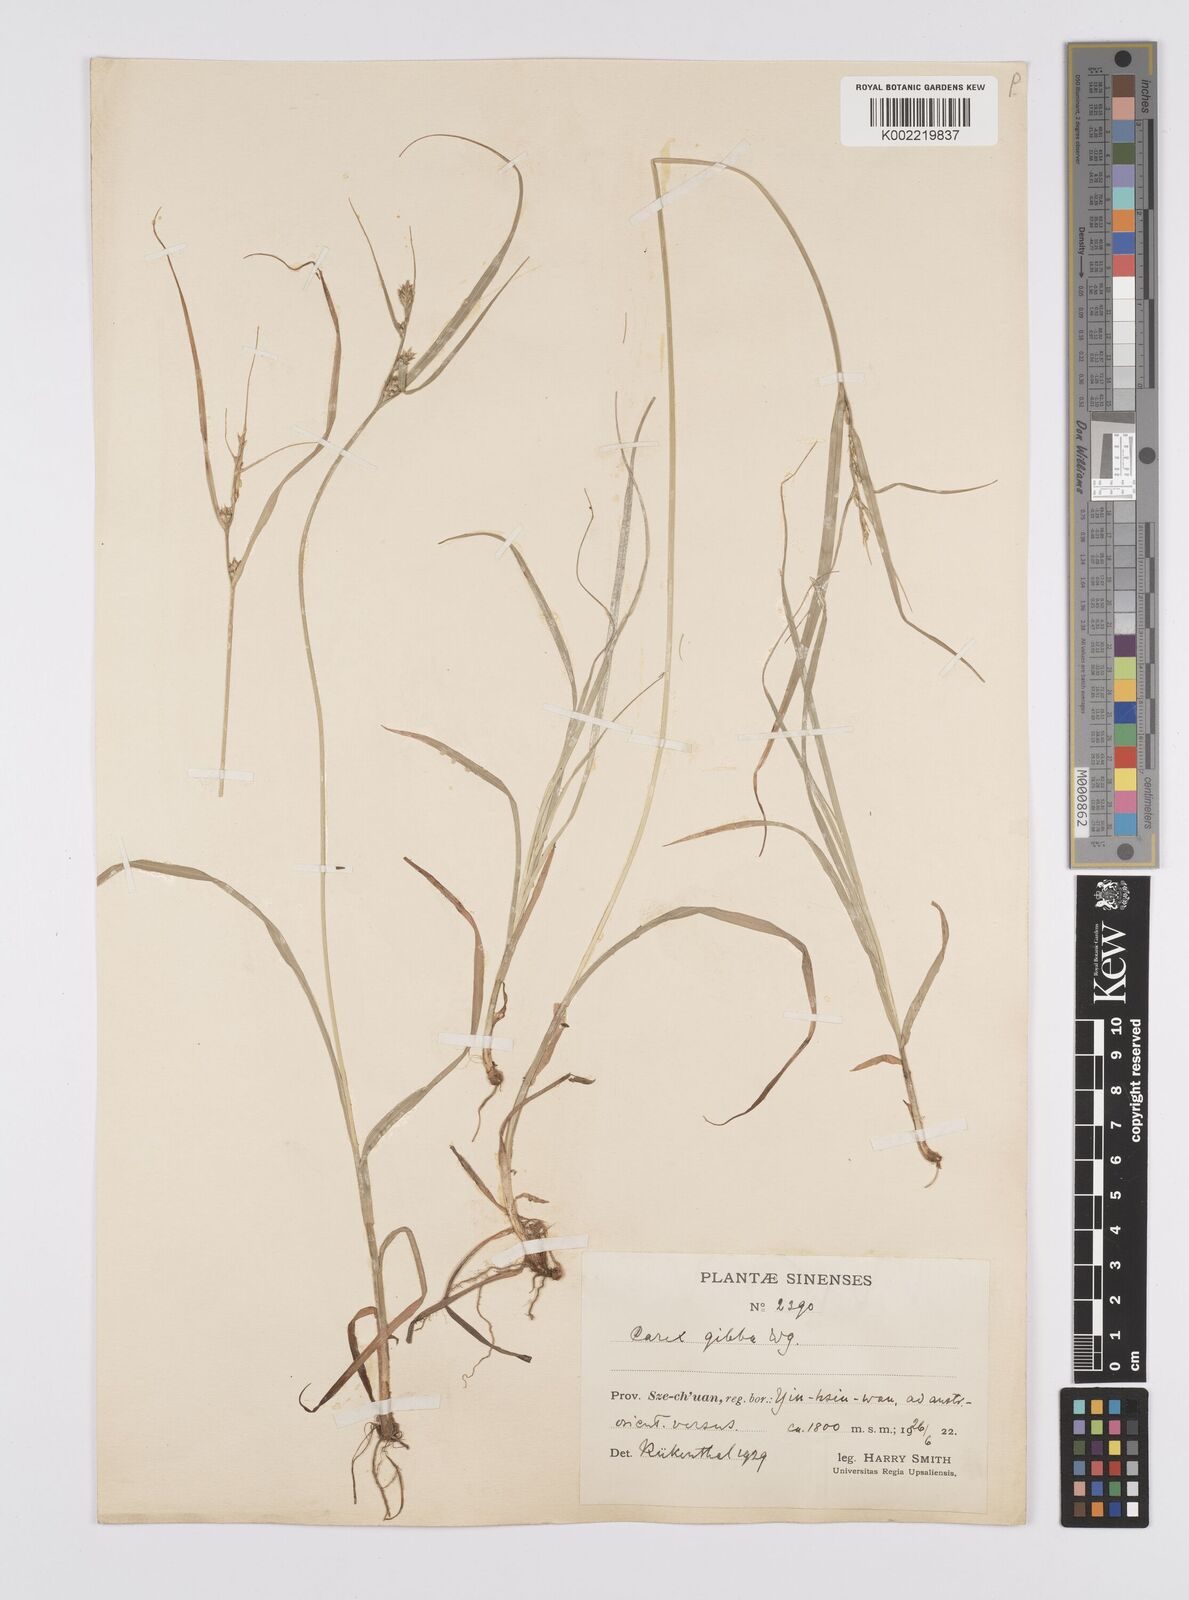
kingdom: Plantae
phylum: Tracheophyta
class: Liliopsida
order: Poales
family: Cyperaceae
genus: Carex
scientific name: Carex gibba
